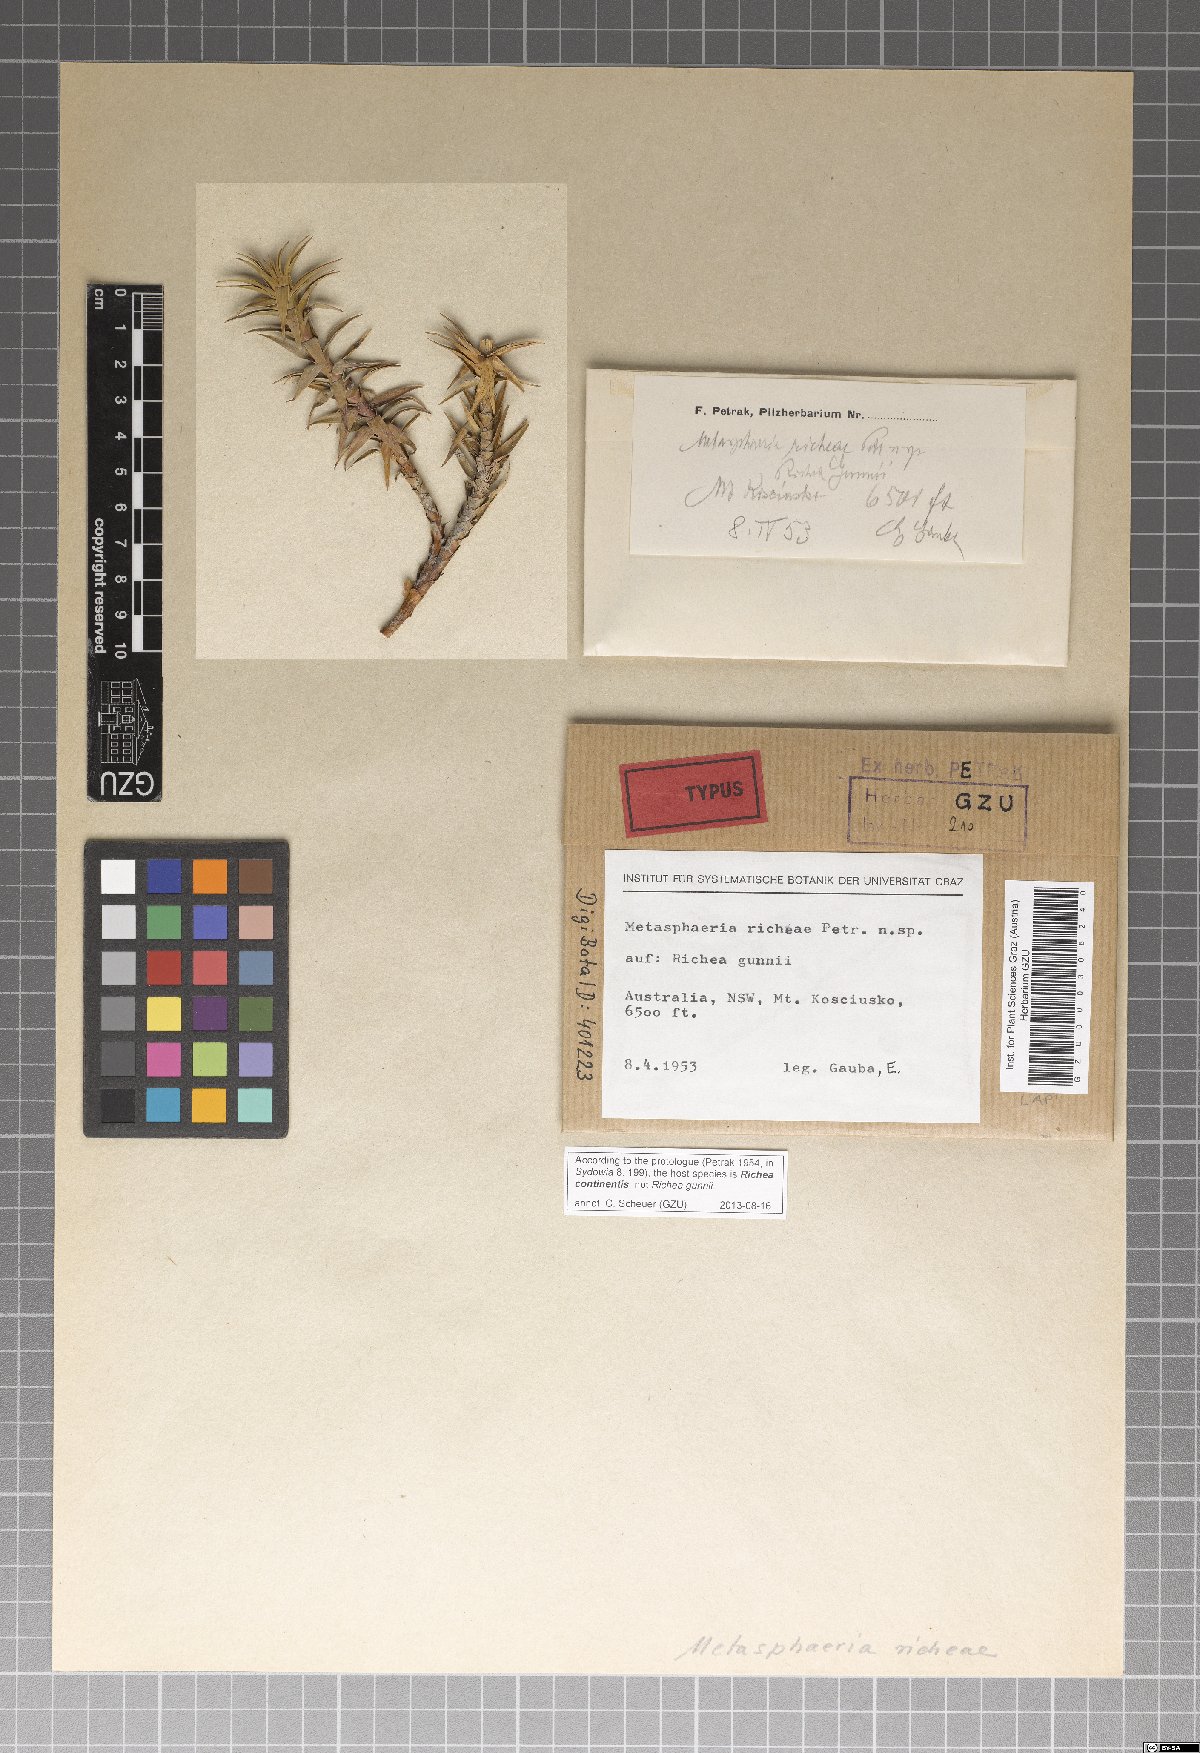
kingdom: Fungi
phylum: Ascomycota
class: Dothideomycetes
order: Dothideales
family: Saccotheciaceae
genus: Metasphaeria
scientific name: Metasphaeria richeae
